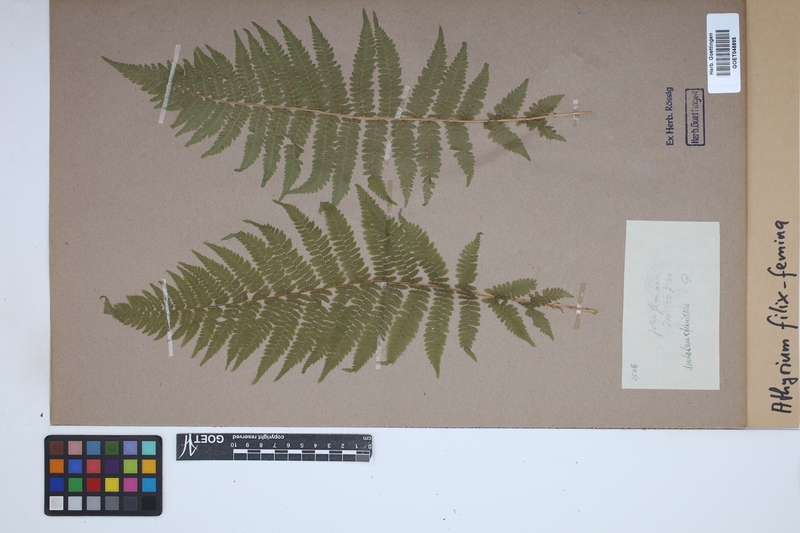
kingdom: Plantae
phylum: Tracheophyta
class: Polypodiopsida
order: Polypodiales
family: Athyriaceae
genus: Athyrium
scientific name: Athyrium filix-femina
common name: Lady fern
